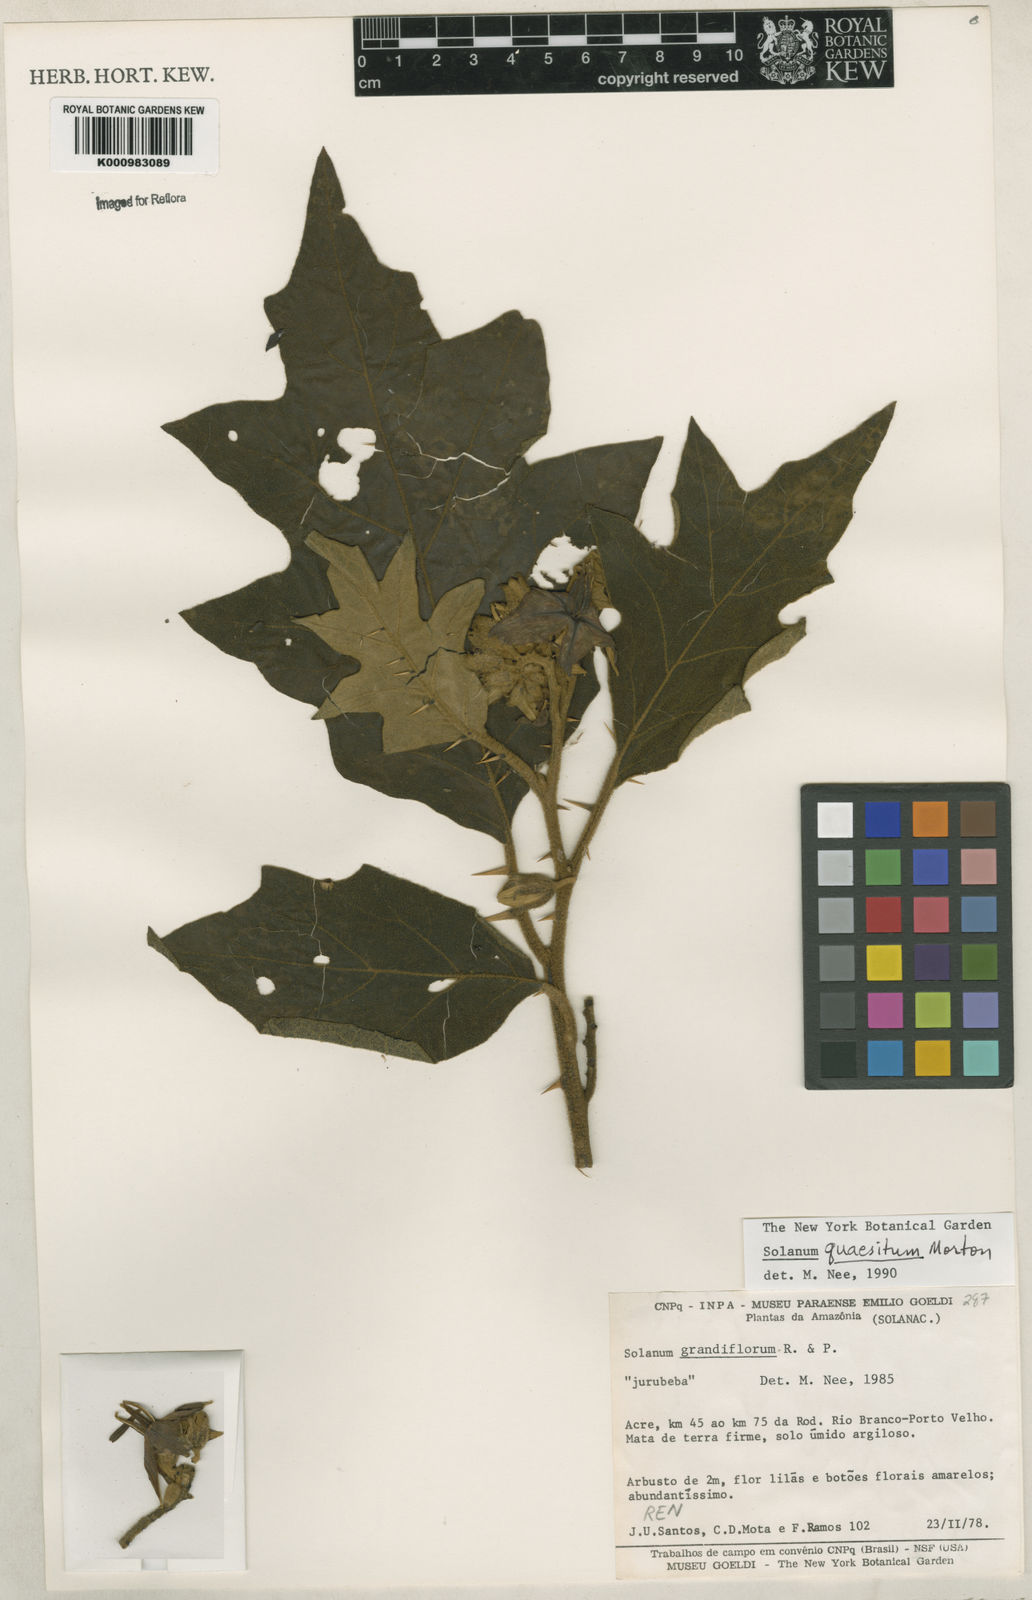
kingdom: Plantae
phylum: Tracheophyta
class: Magnoliopsida
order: Solanales
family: Solanaceae
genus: Solanum
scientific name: Solanum grandiflorum
